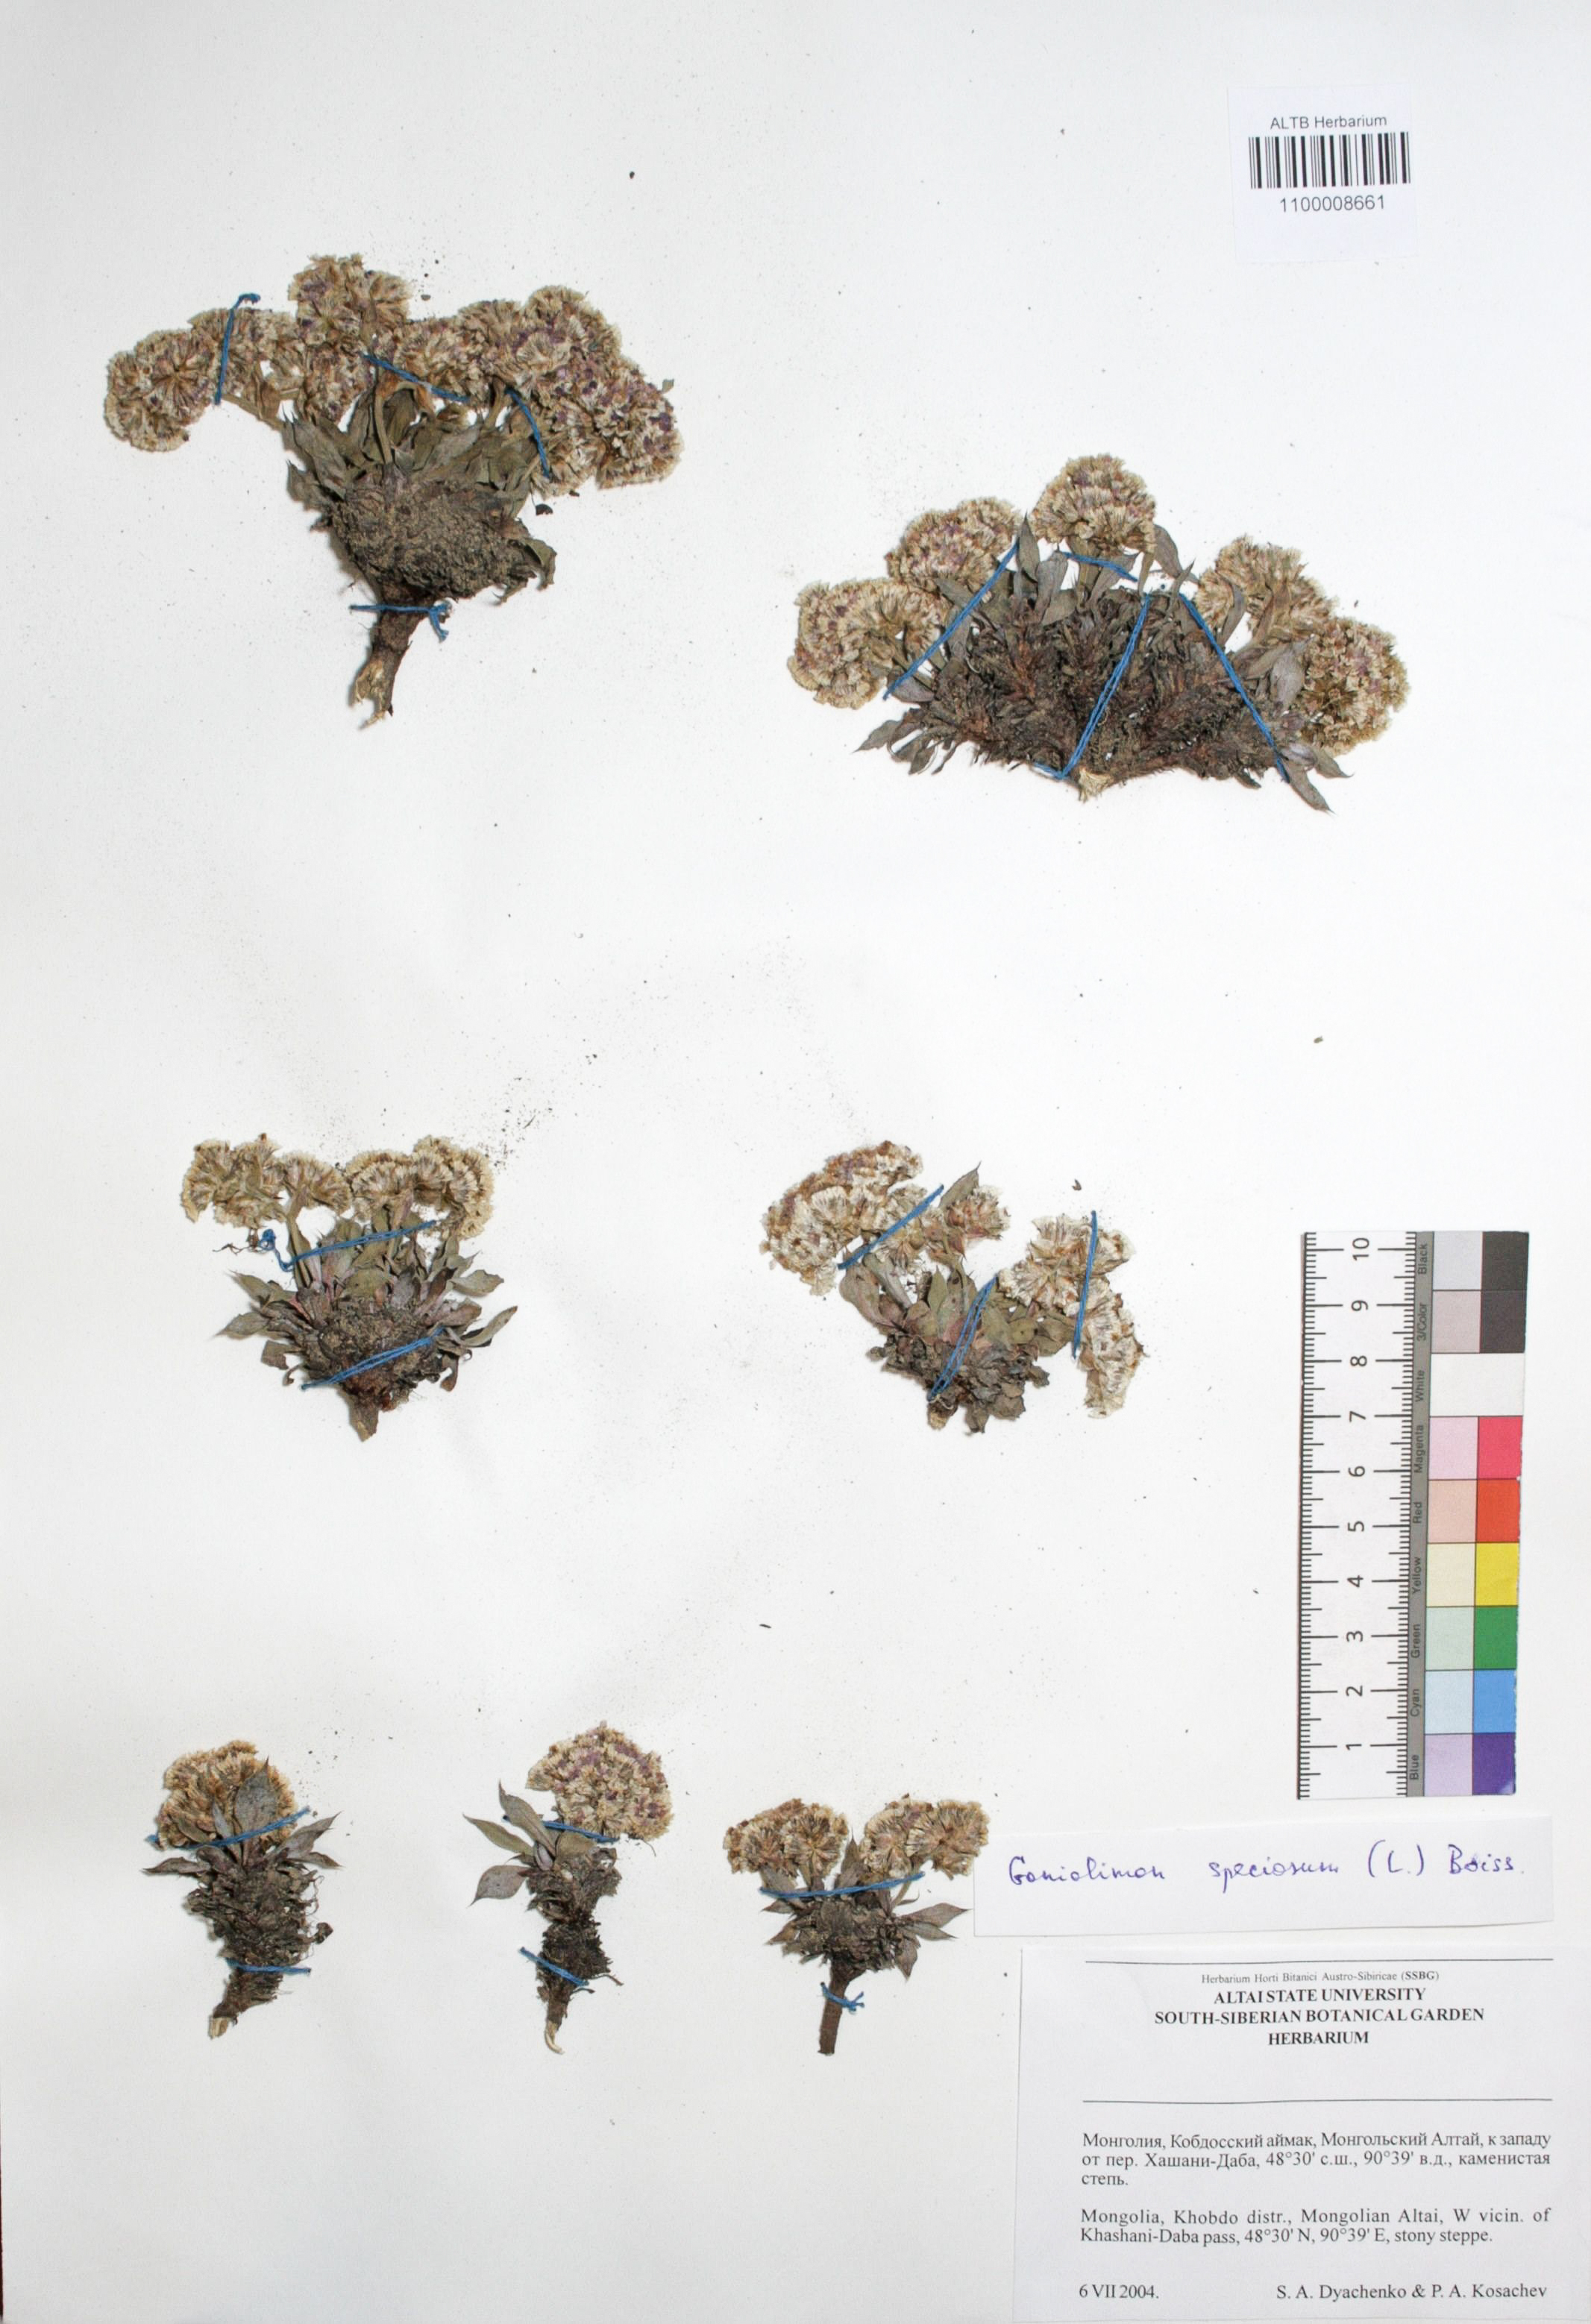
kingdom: Plantae
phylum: Tracheophyta
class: Magnoliopsida
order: Caryophyllales
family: Plumbaginaceae
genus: Goniolimon
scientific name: Goniolimon speciosum
